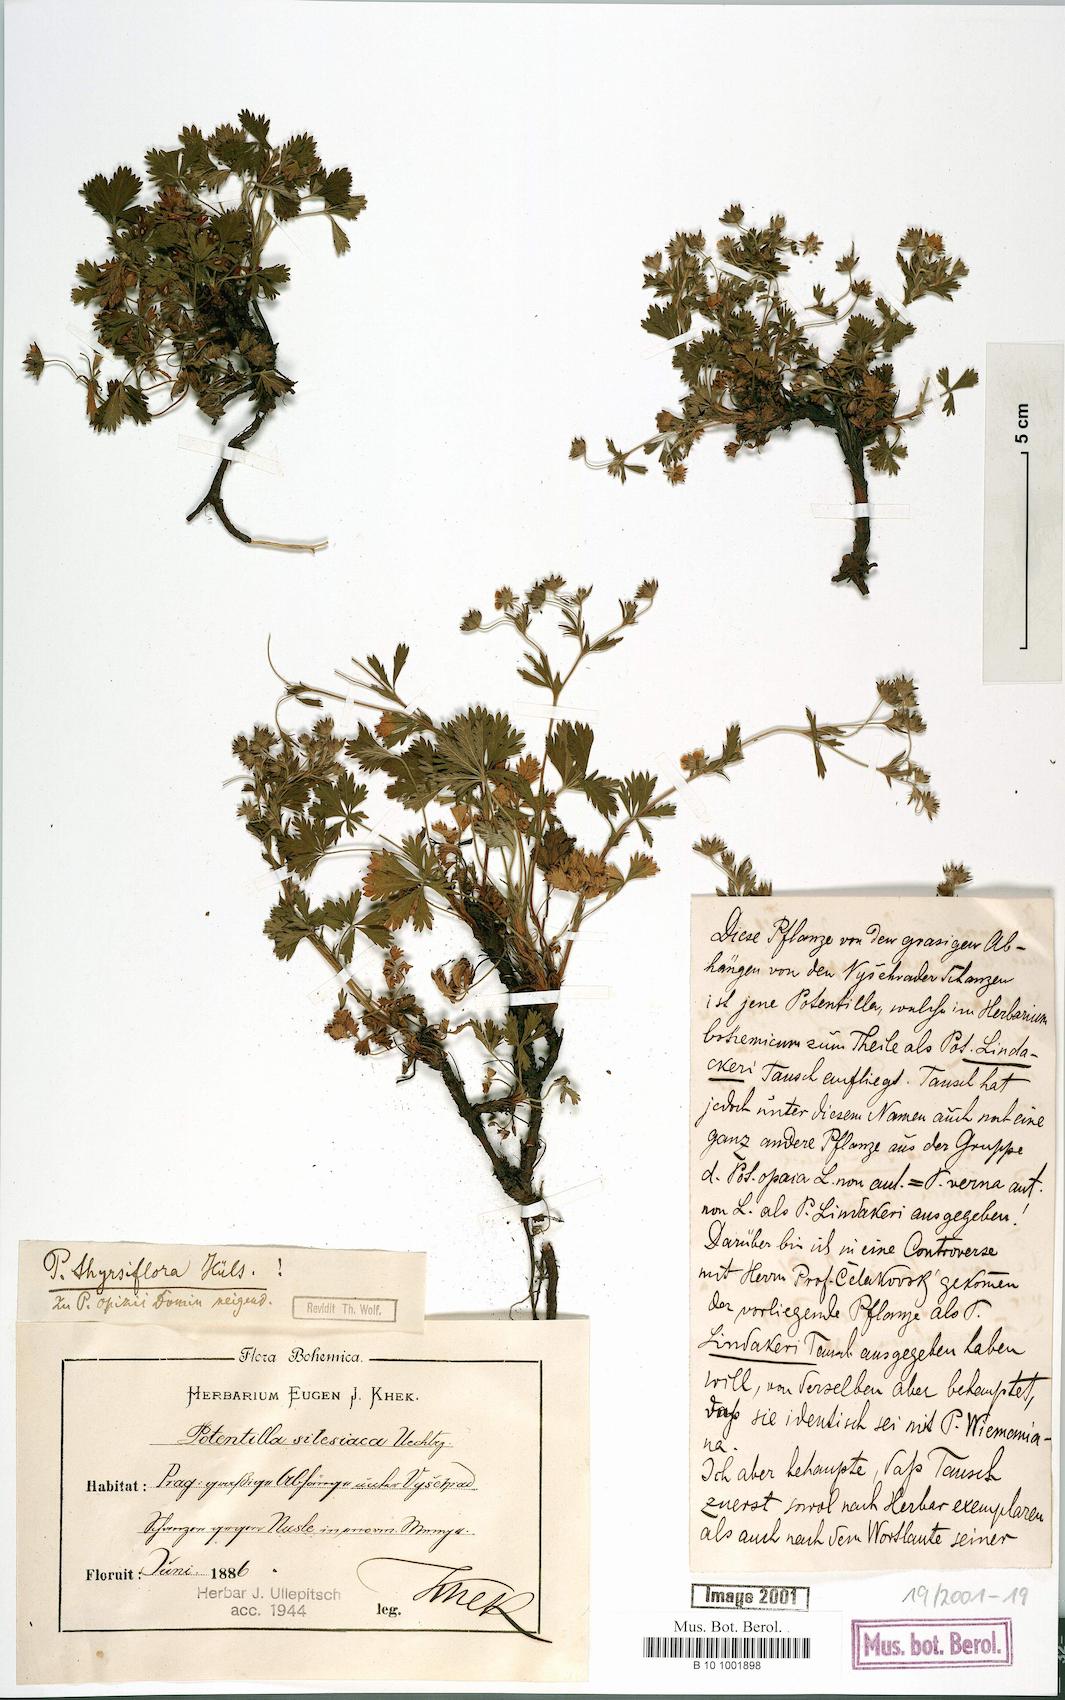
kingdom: Plantae
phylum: Tracheophyta
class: Magnoliopsida
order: Rosales
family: Rosaceae
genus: Potentilla
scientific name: Potentilla lindackeri
